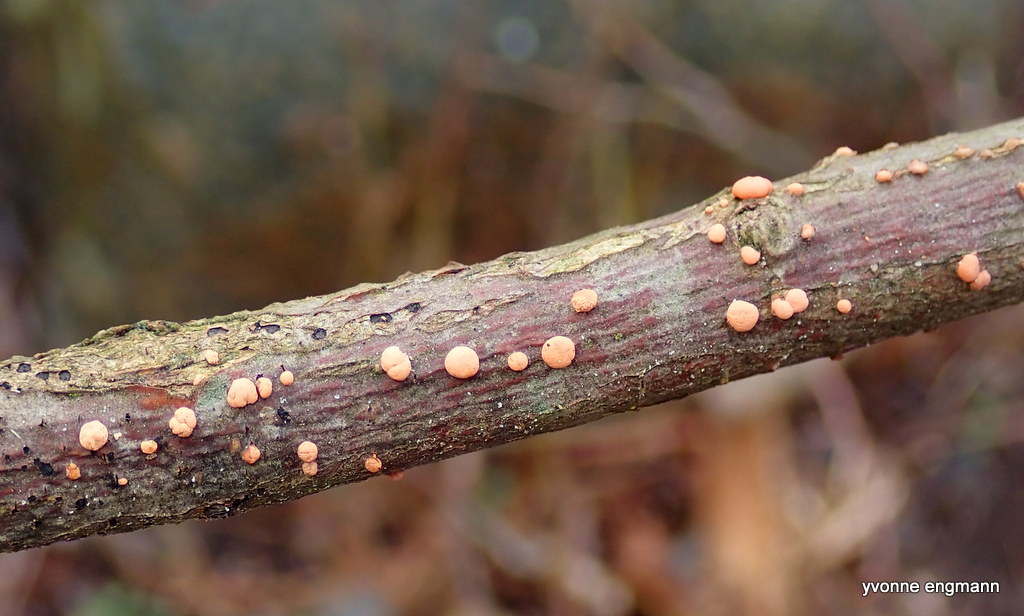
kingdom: Fungi
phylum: Ascomycota
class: Sordariomycetes
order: Hypocreales
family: Nectriaceae
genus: Nectria
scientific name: Nectria cinnabarina
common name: almindelig cinnobersvamp
